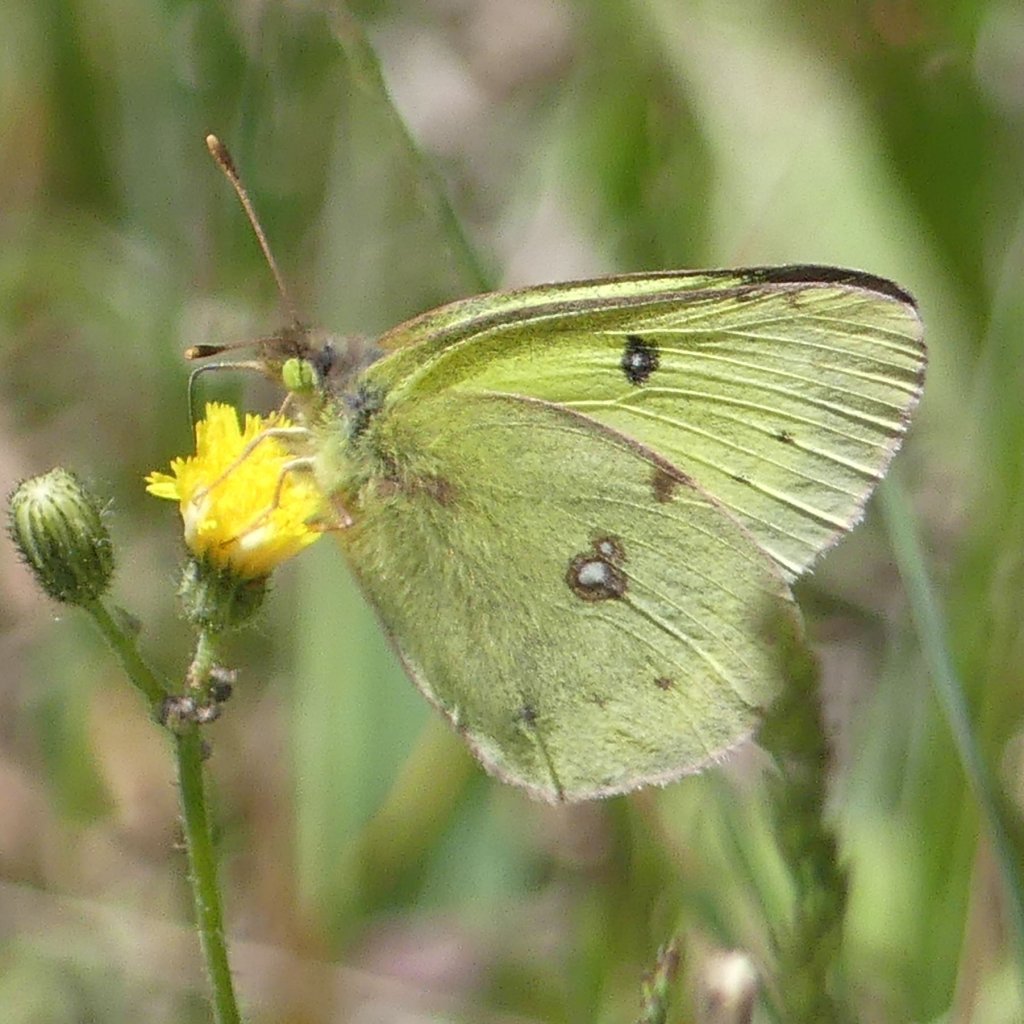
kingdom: Animalia
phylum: Arthropoda
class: Insecta
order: Lepidoptera
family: Pieridae
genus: Colias
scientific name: Colias philodice
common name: Clouded Sulphur
